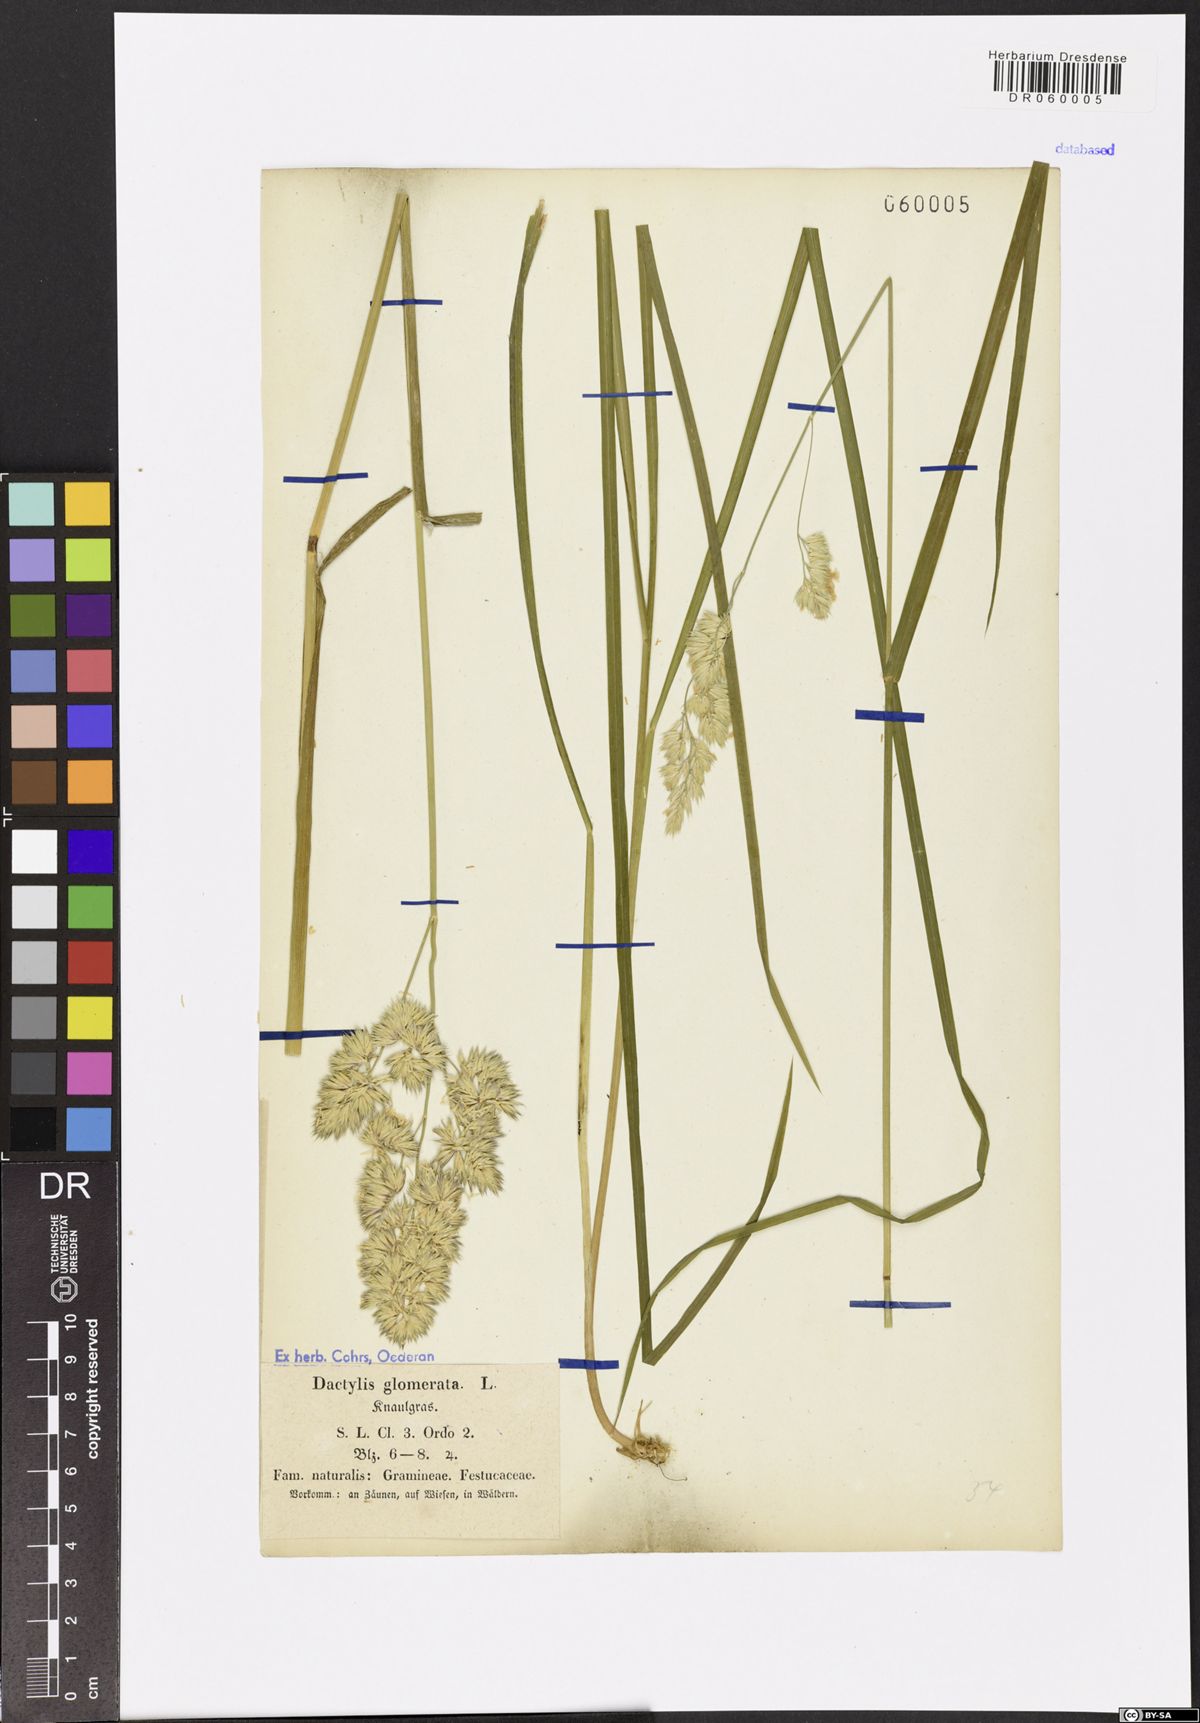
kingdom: Plantae
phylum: Tracheophyta
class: Liliopsida
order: Poales
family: Poaceae
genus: Dactylis
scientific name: Dactylis glomerata
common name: Orchardgrass
